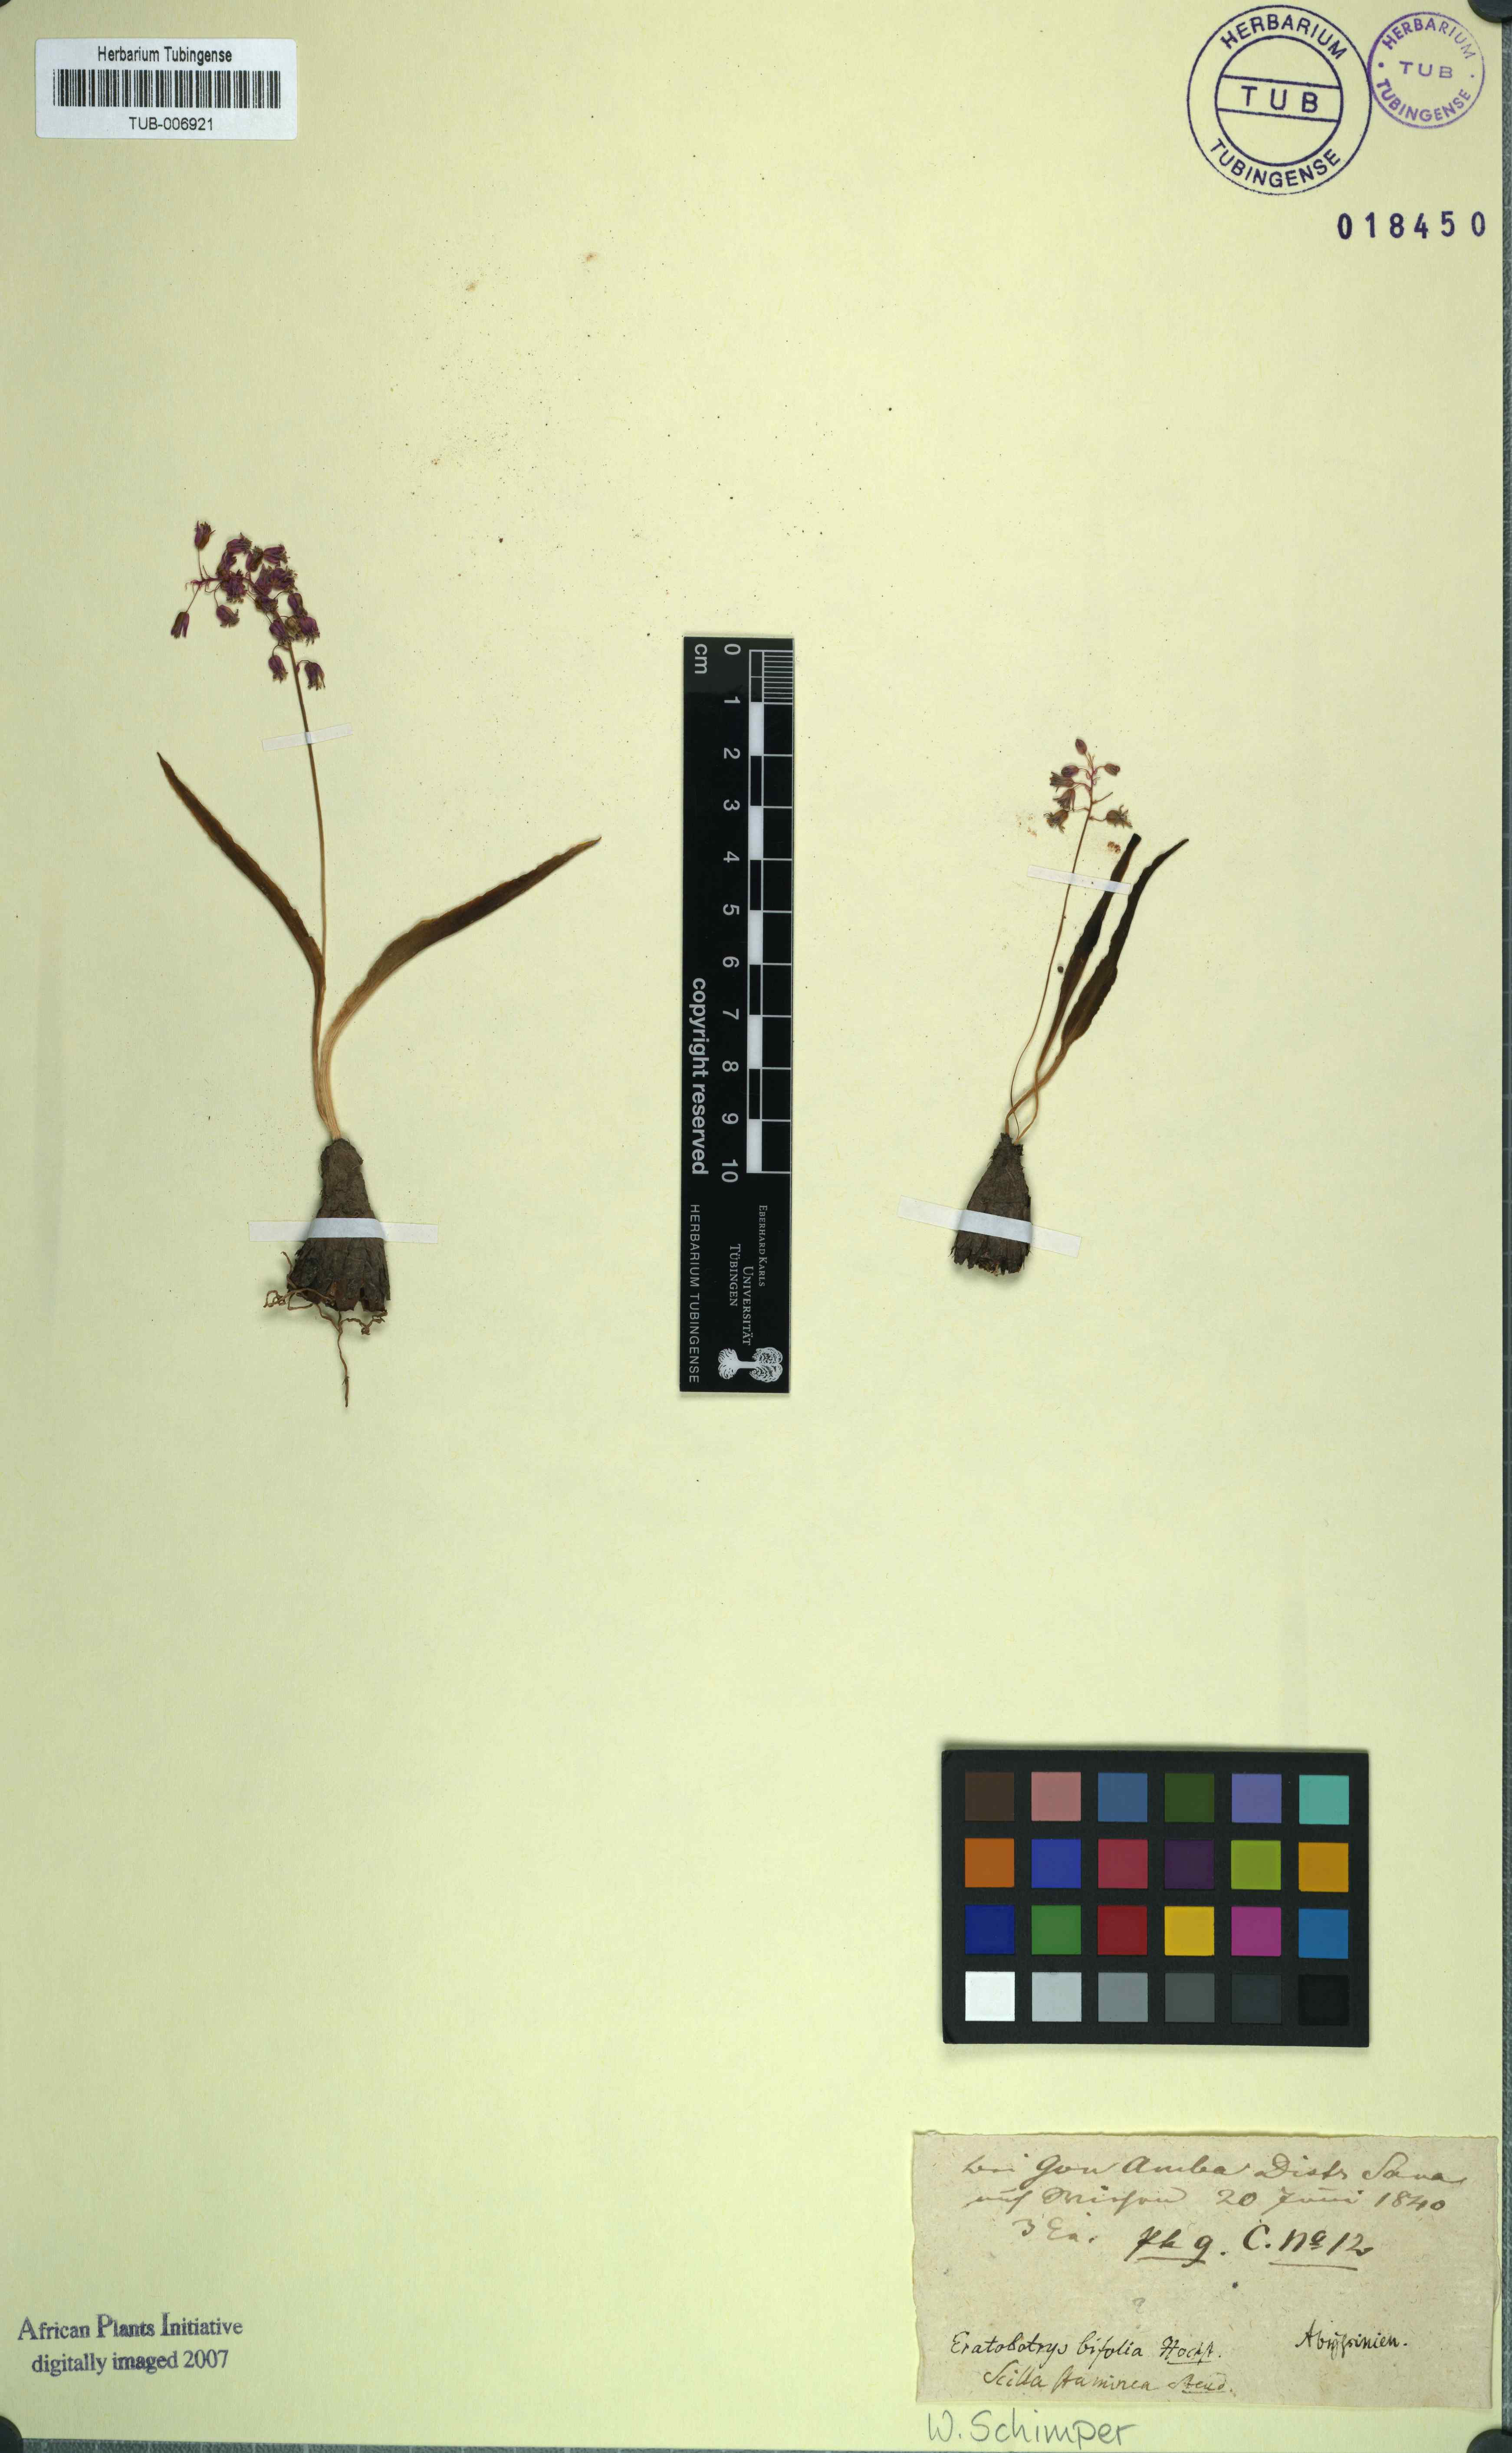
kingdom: Plantae
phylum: Tracheophyta
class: Liliopsida
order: Asparagales
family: Asparagaceae
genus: Ledebouria
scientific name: Ledebouria revoluta
